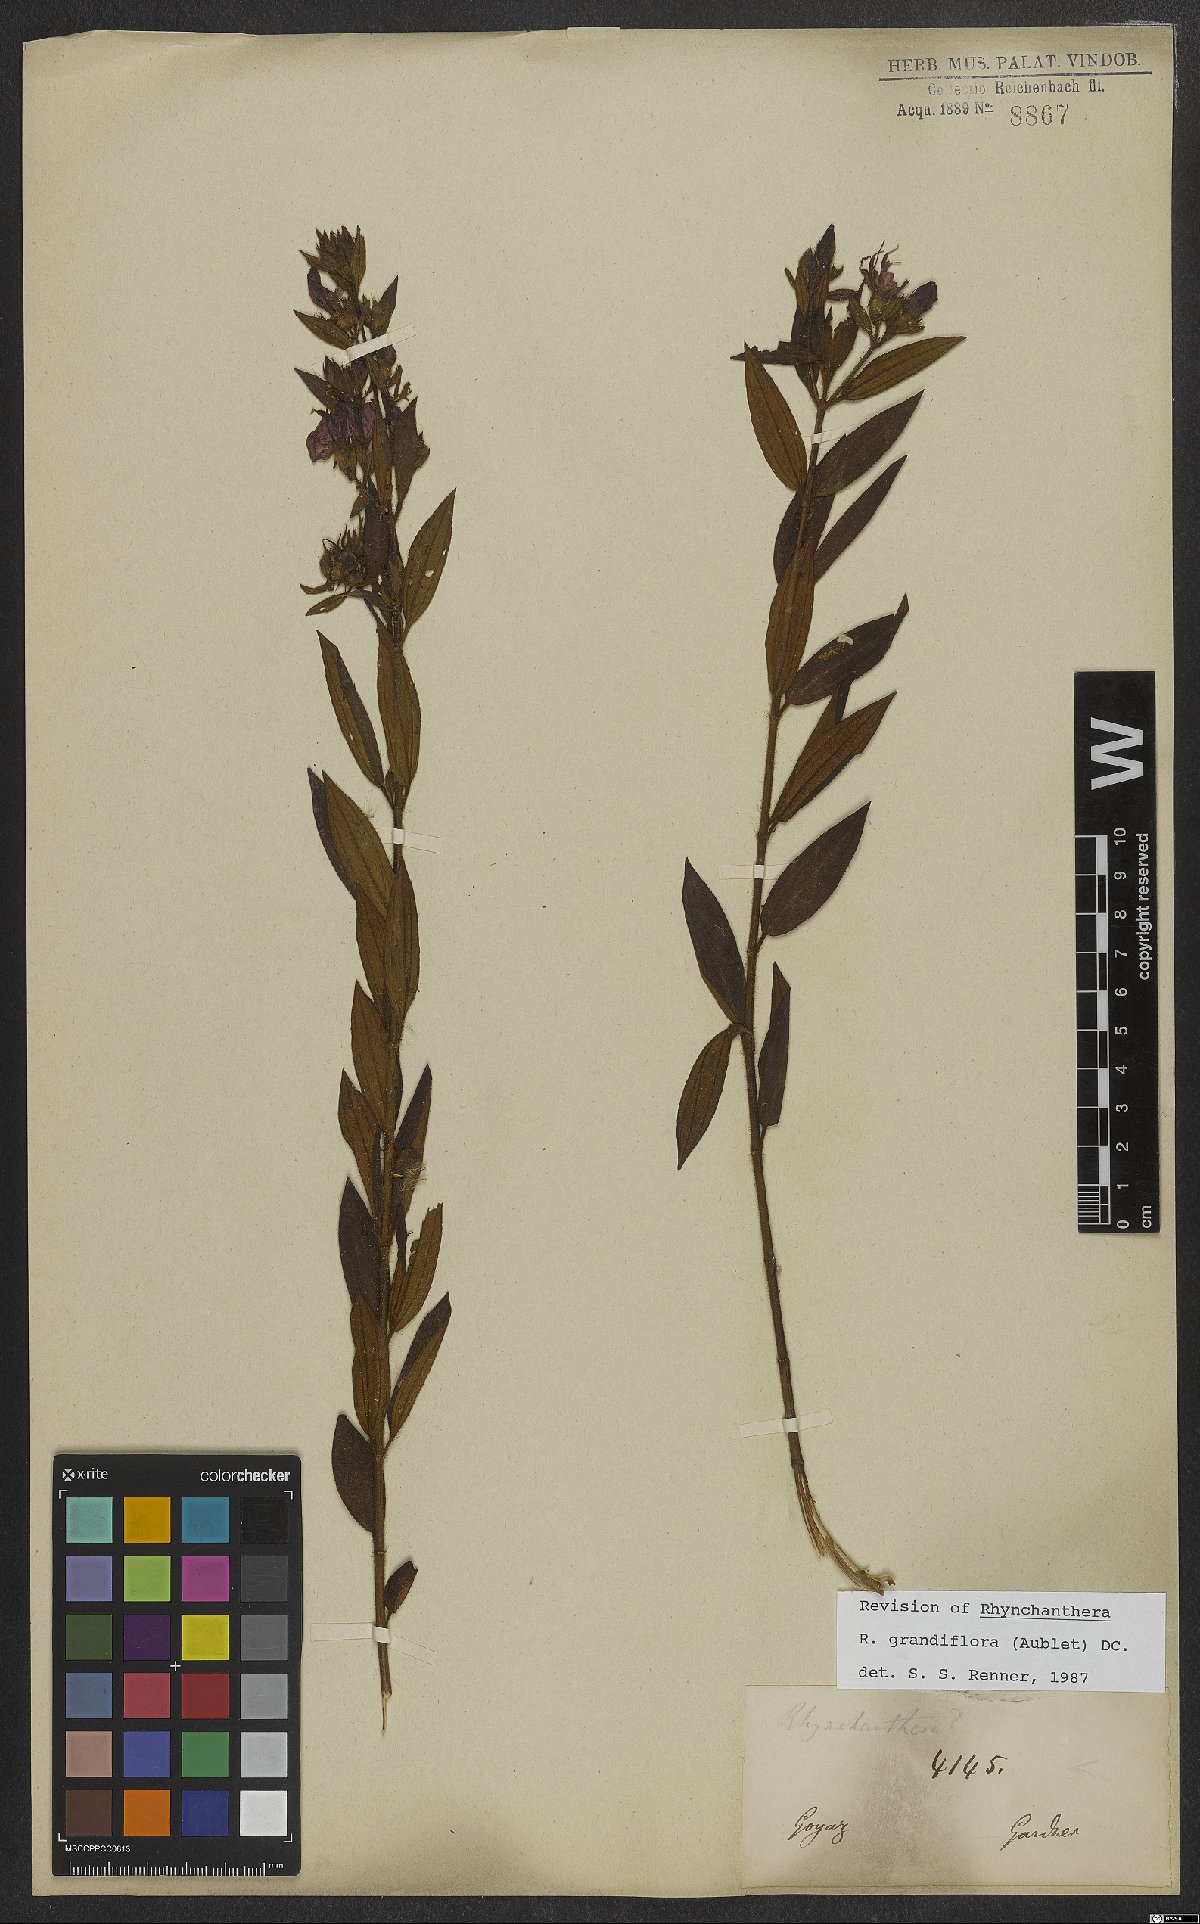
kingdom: Plantae
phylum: Tracheophyta
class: Magnoliopsida
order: Myrtales
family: Melastomataceae
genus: Rhynchanthera
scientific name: Rhynchanthera grandiflora
